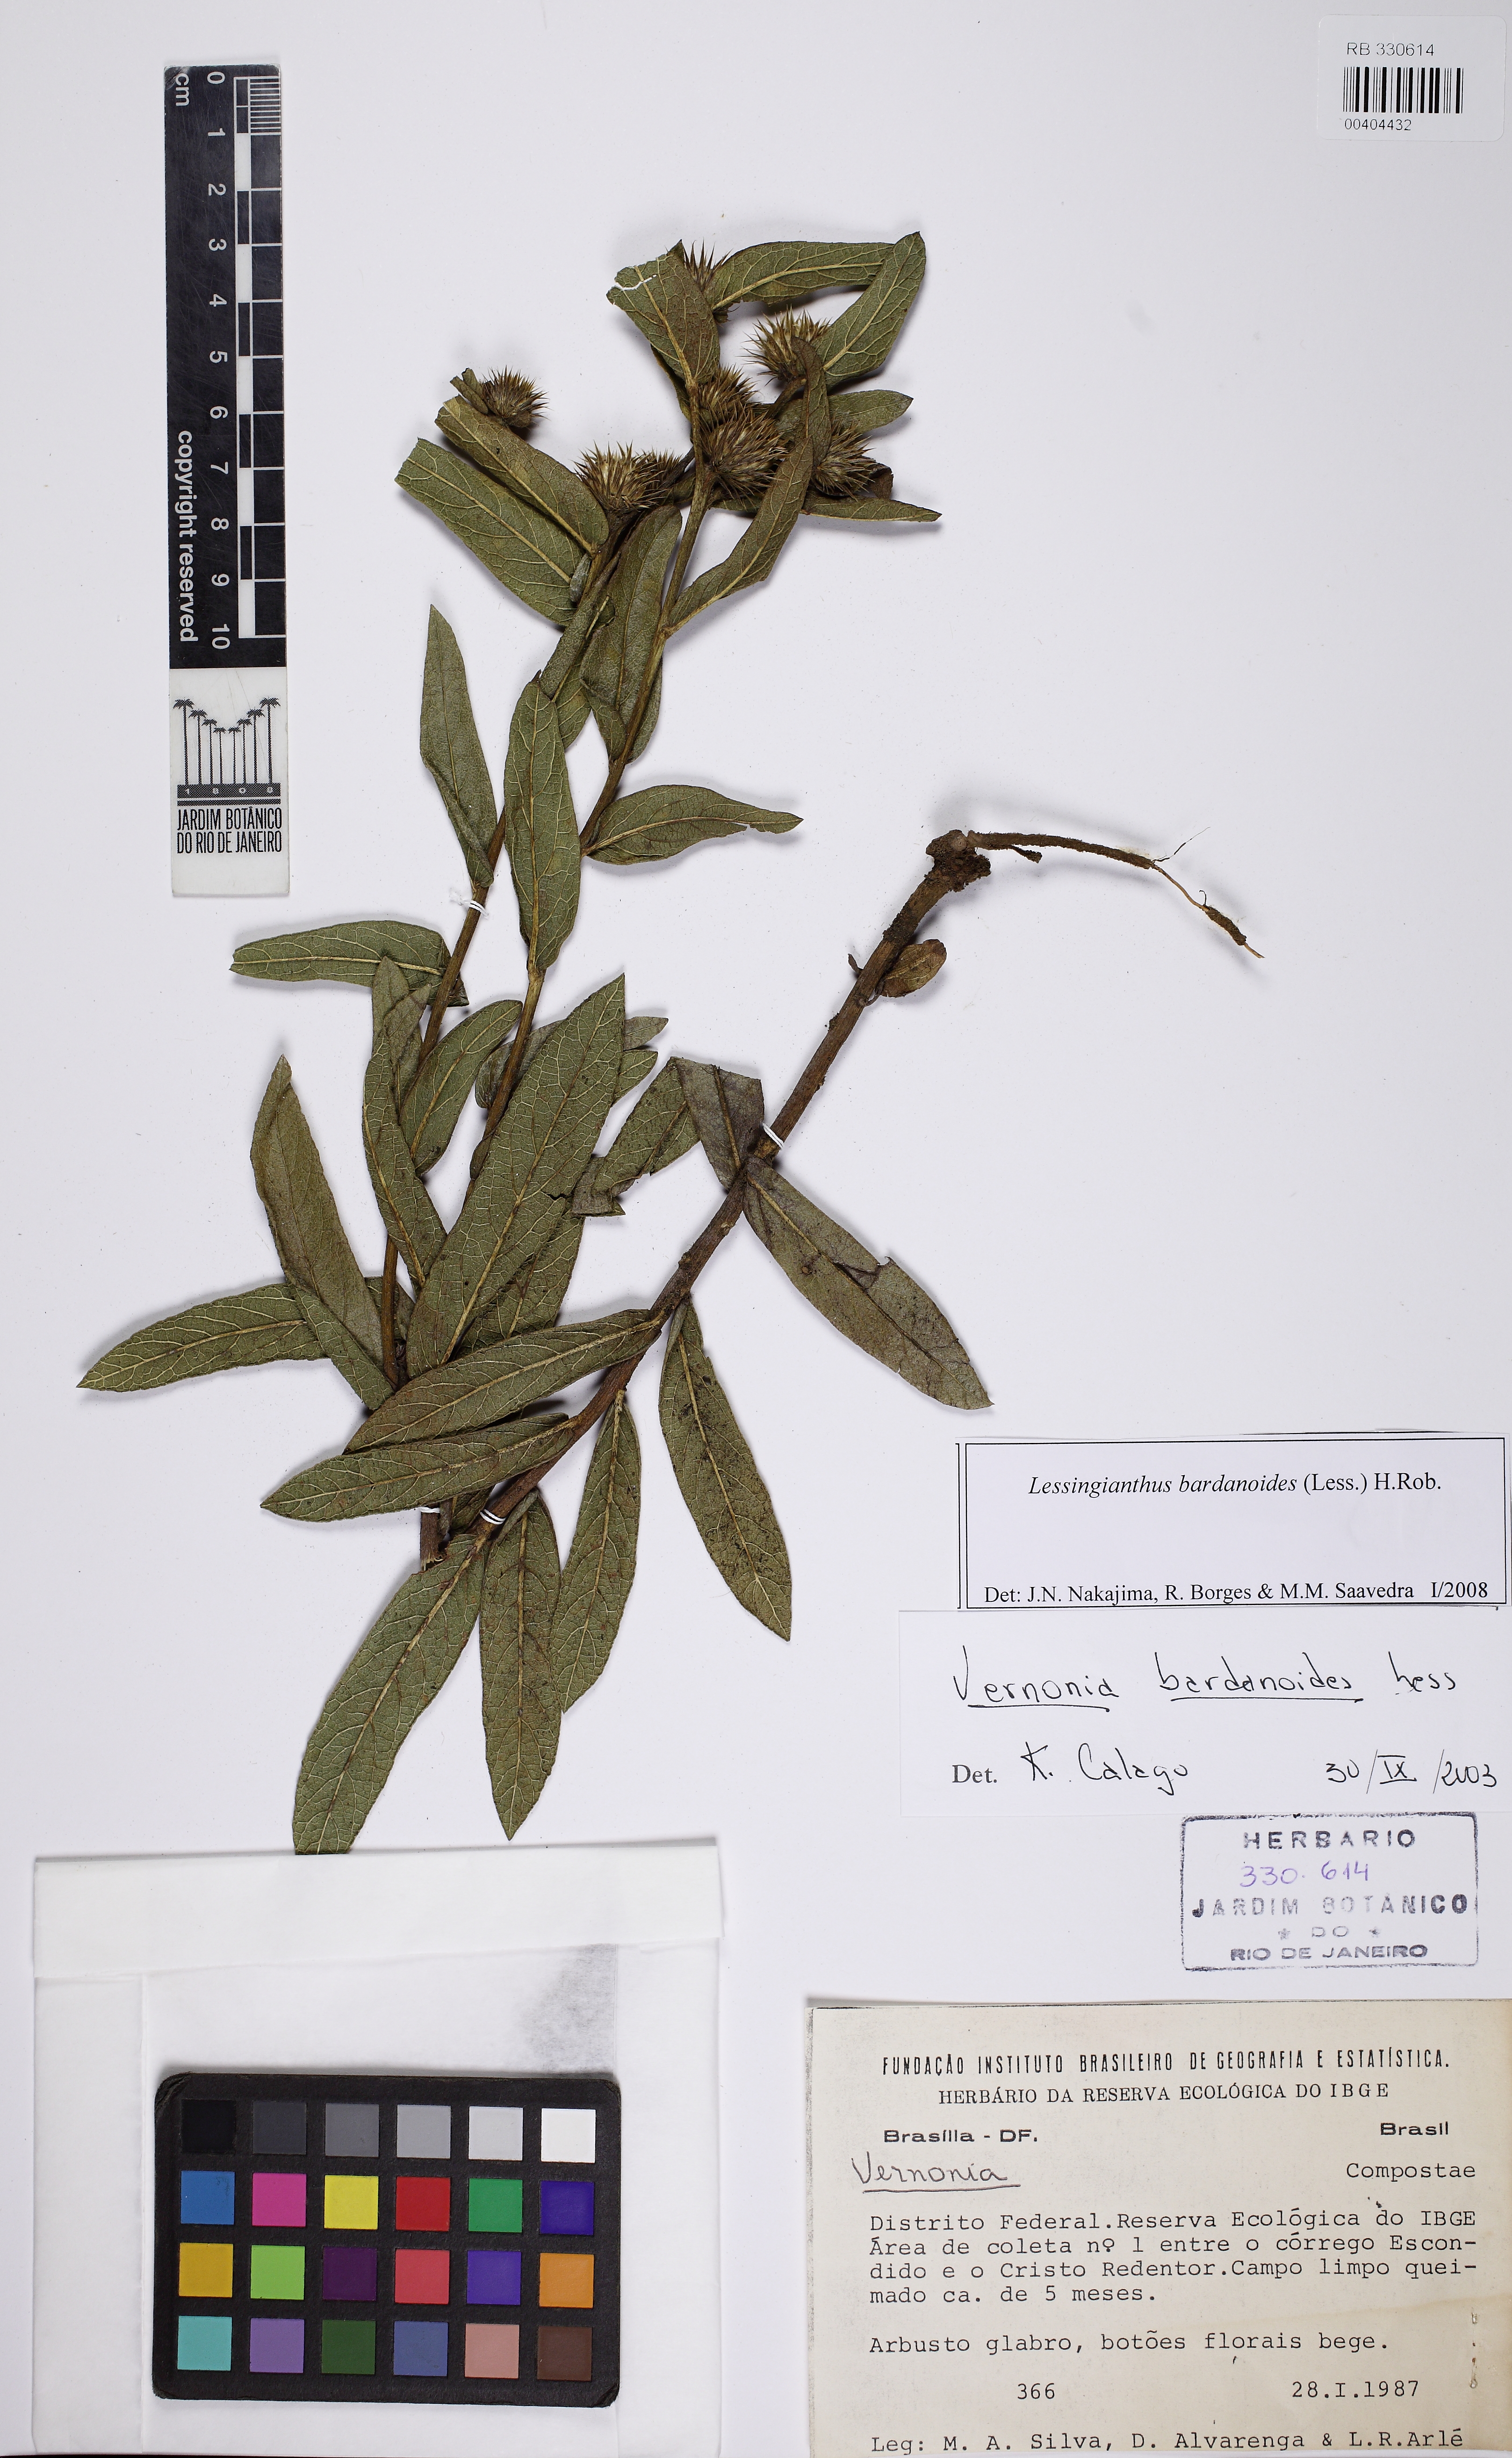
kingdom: Plantae
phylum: Tracheophyta
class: Magnoliopsida
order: Asterales
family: Asteraceae
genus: Lessingianthus
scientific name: Lessingianthus bardanioides
